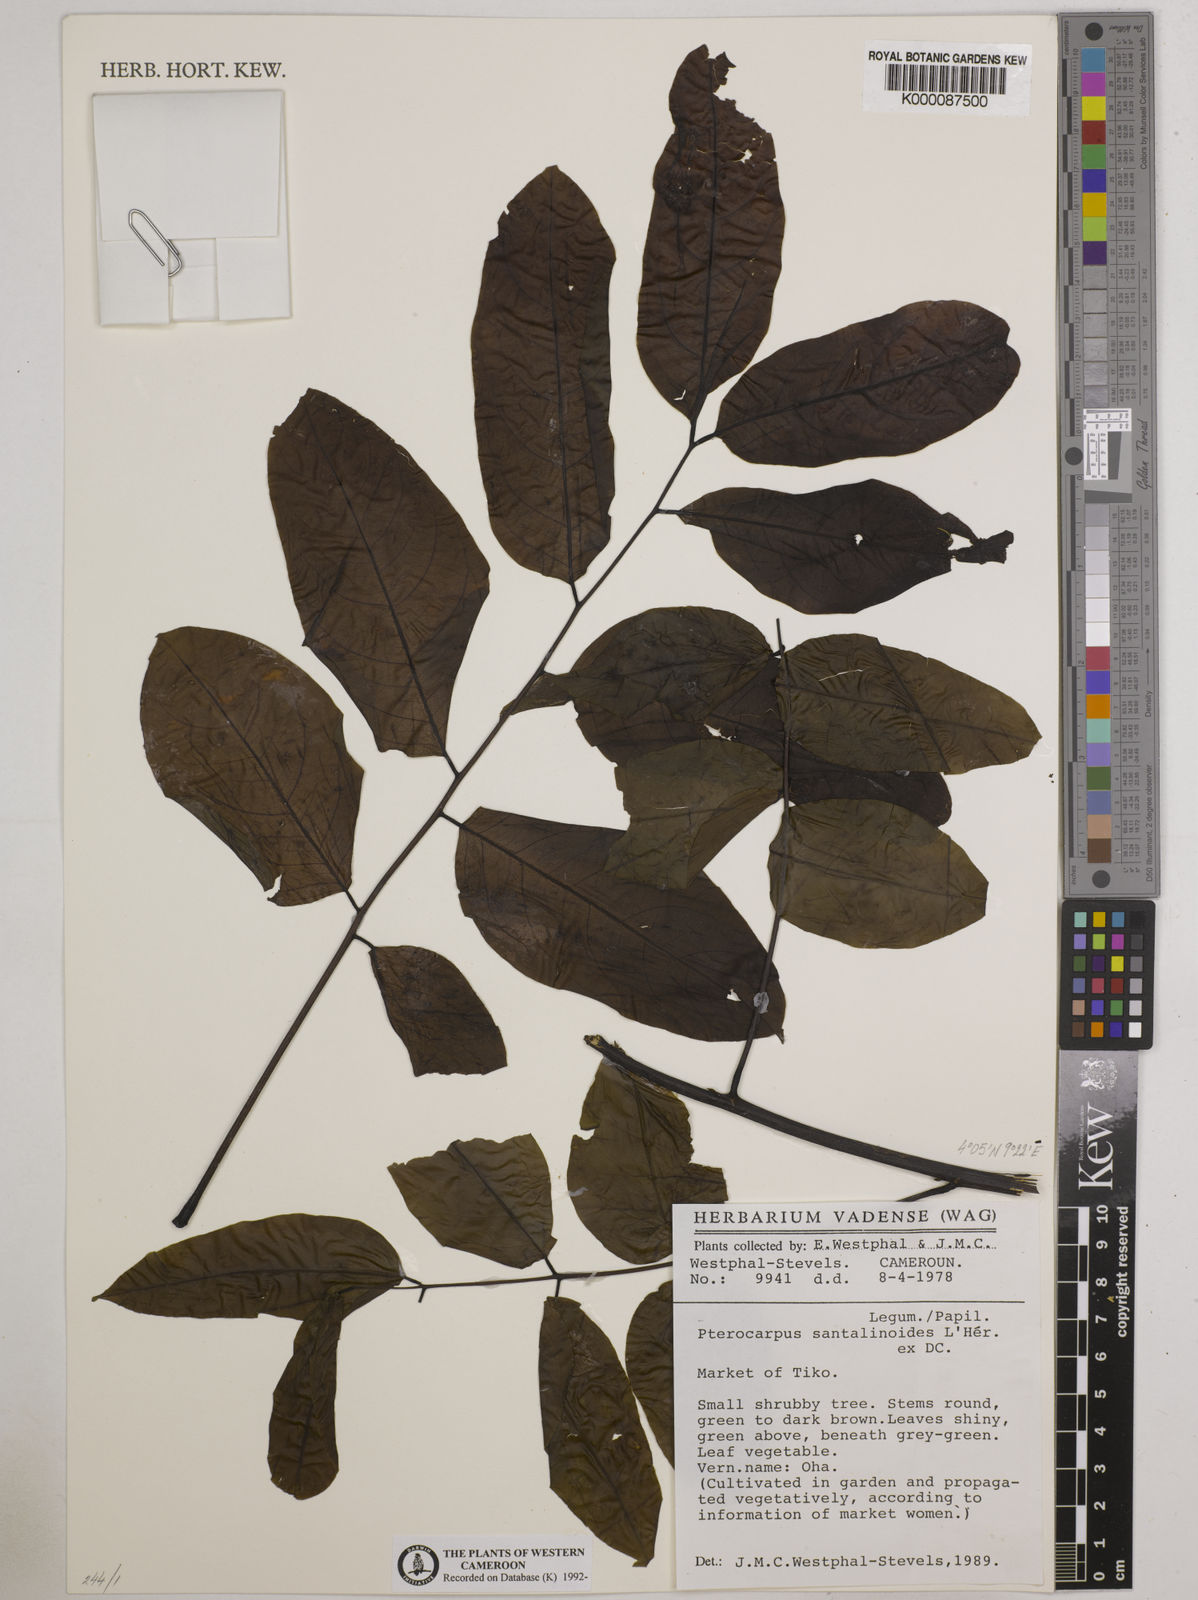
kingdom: Plantae
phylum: Tracheophyta
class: Magnoliopsida
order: Fabales
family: Fabaceae
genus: Pterocarpus
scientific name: Pterocarpus
